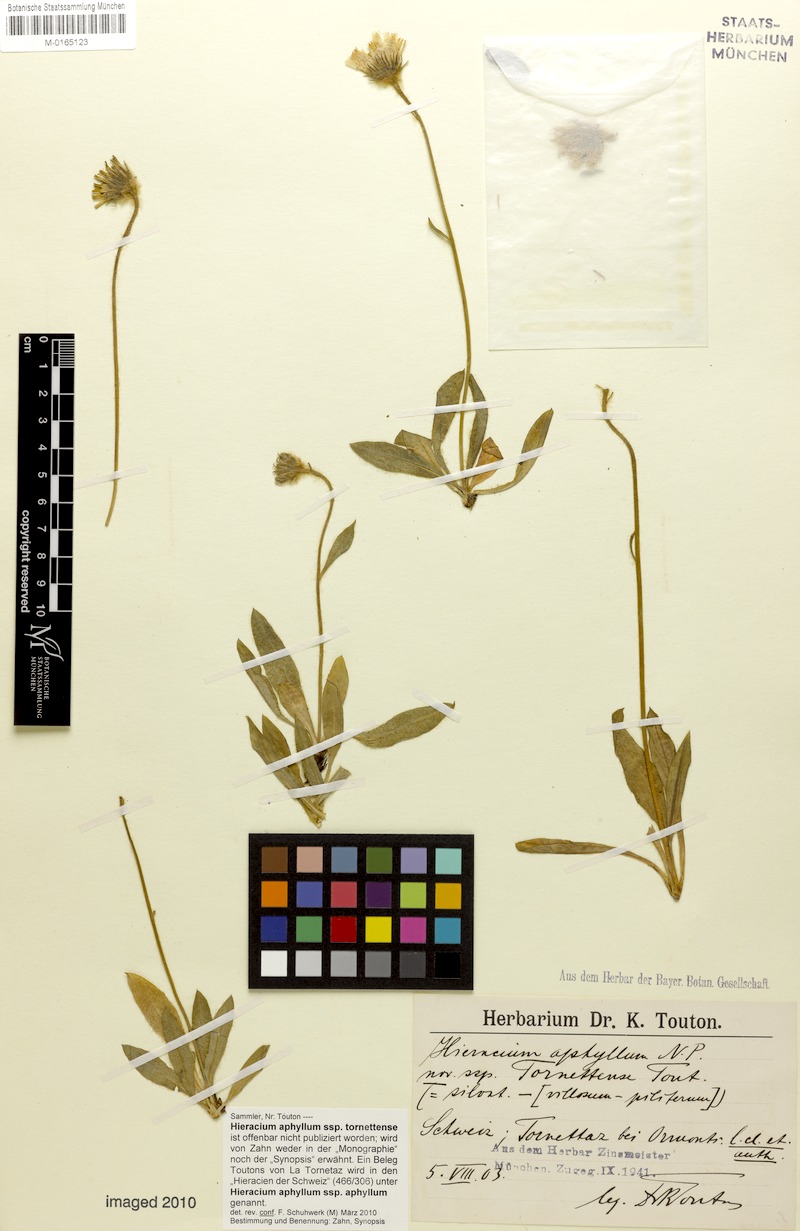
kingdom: Plantae
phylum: Tracheophyta
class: Magnoliopsida
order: Asterales
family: Asteraceae
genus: Hieracium
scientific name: Hieracium aphyllum
